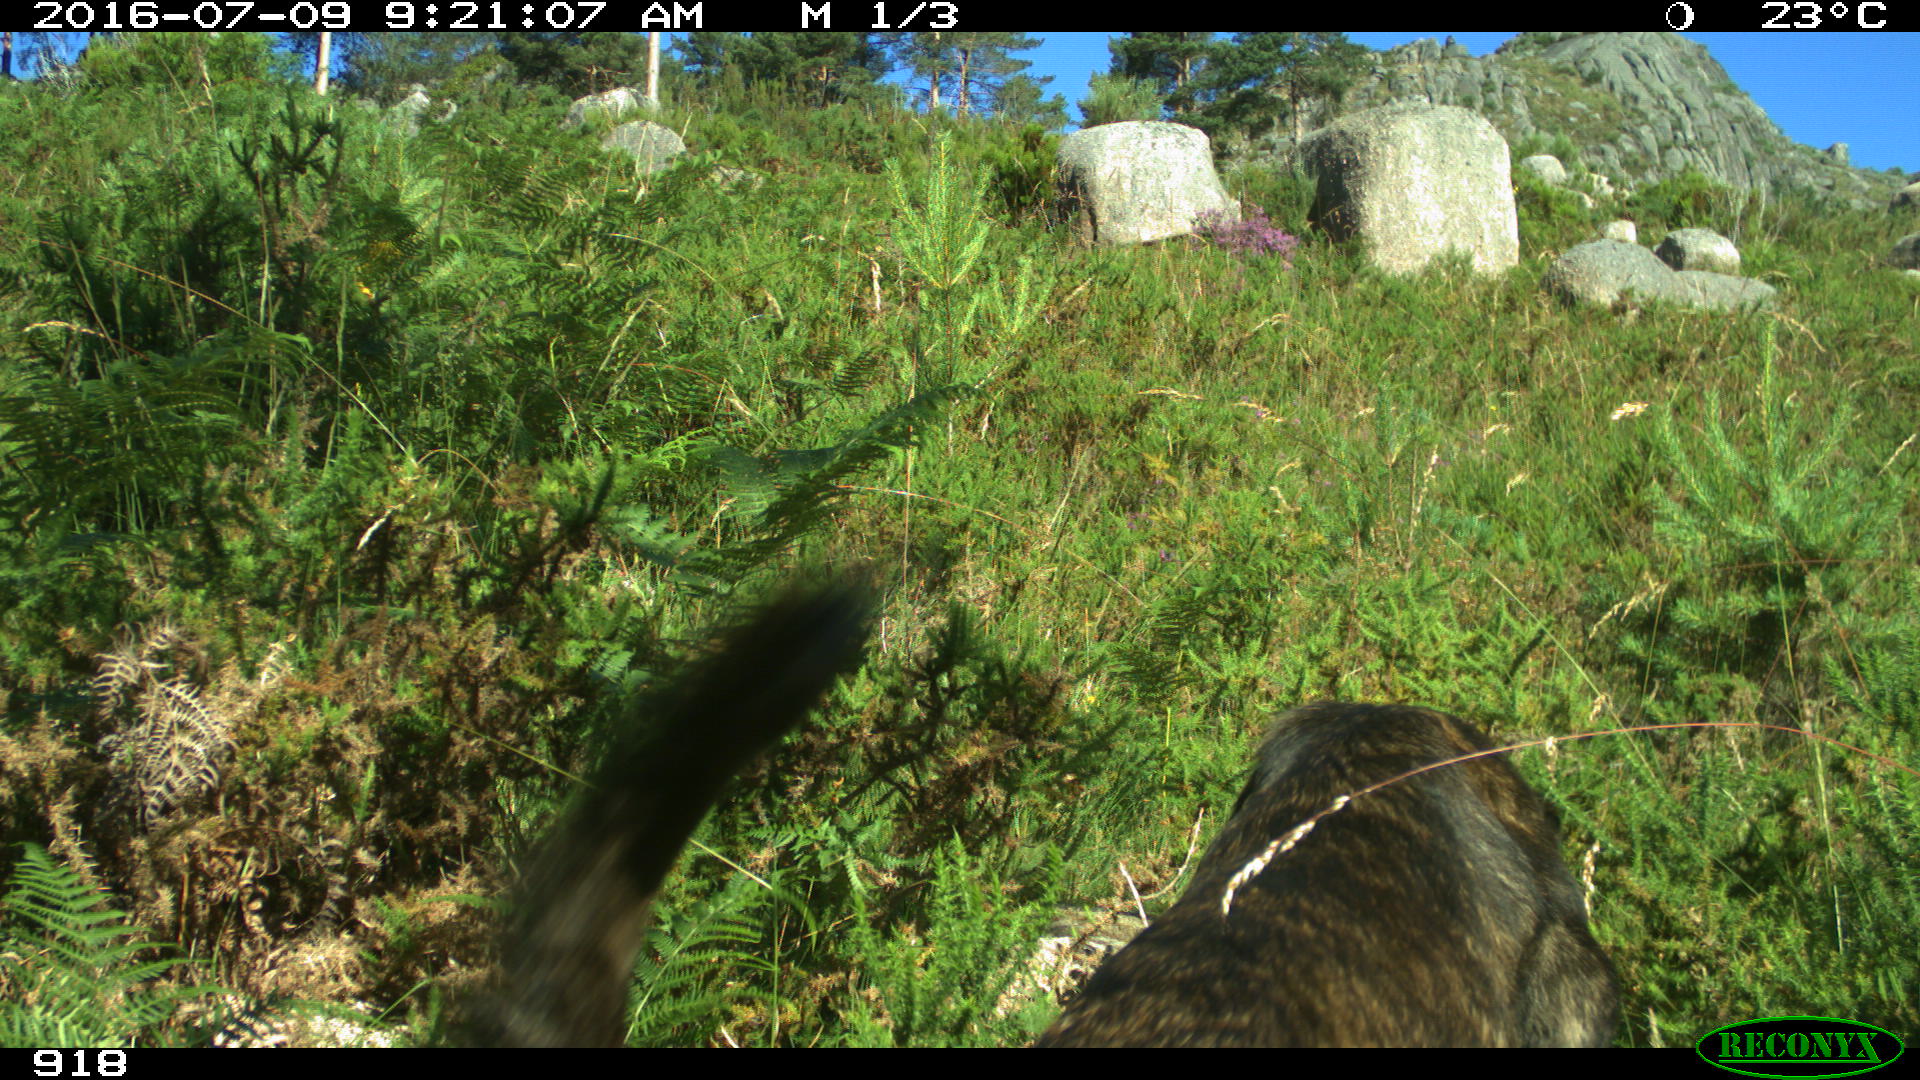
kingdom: Animalia
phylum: Chordata
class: Mammalia
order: Carnivora
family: Canidae
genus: Canis
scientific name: Canis lupus
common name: Gray wolf
